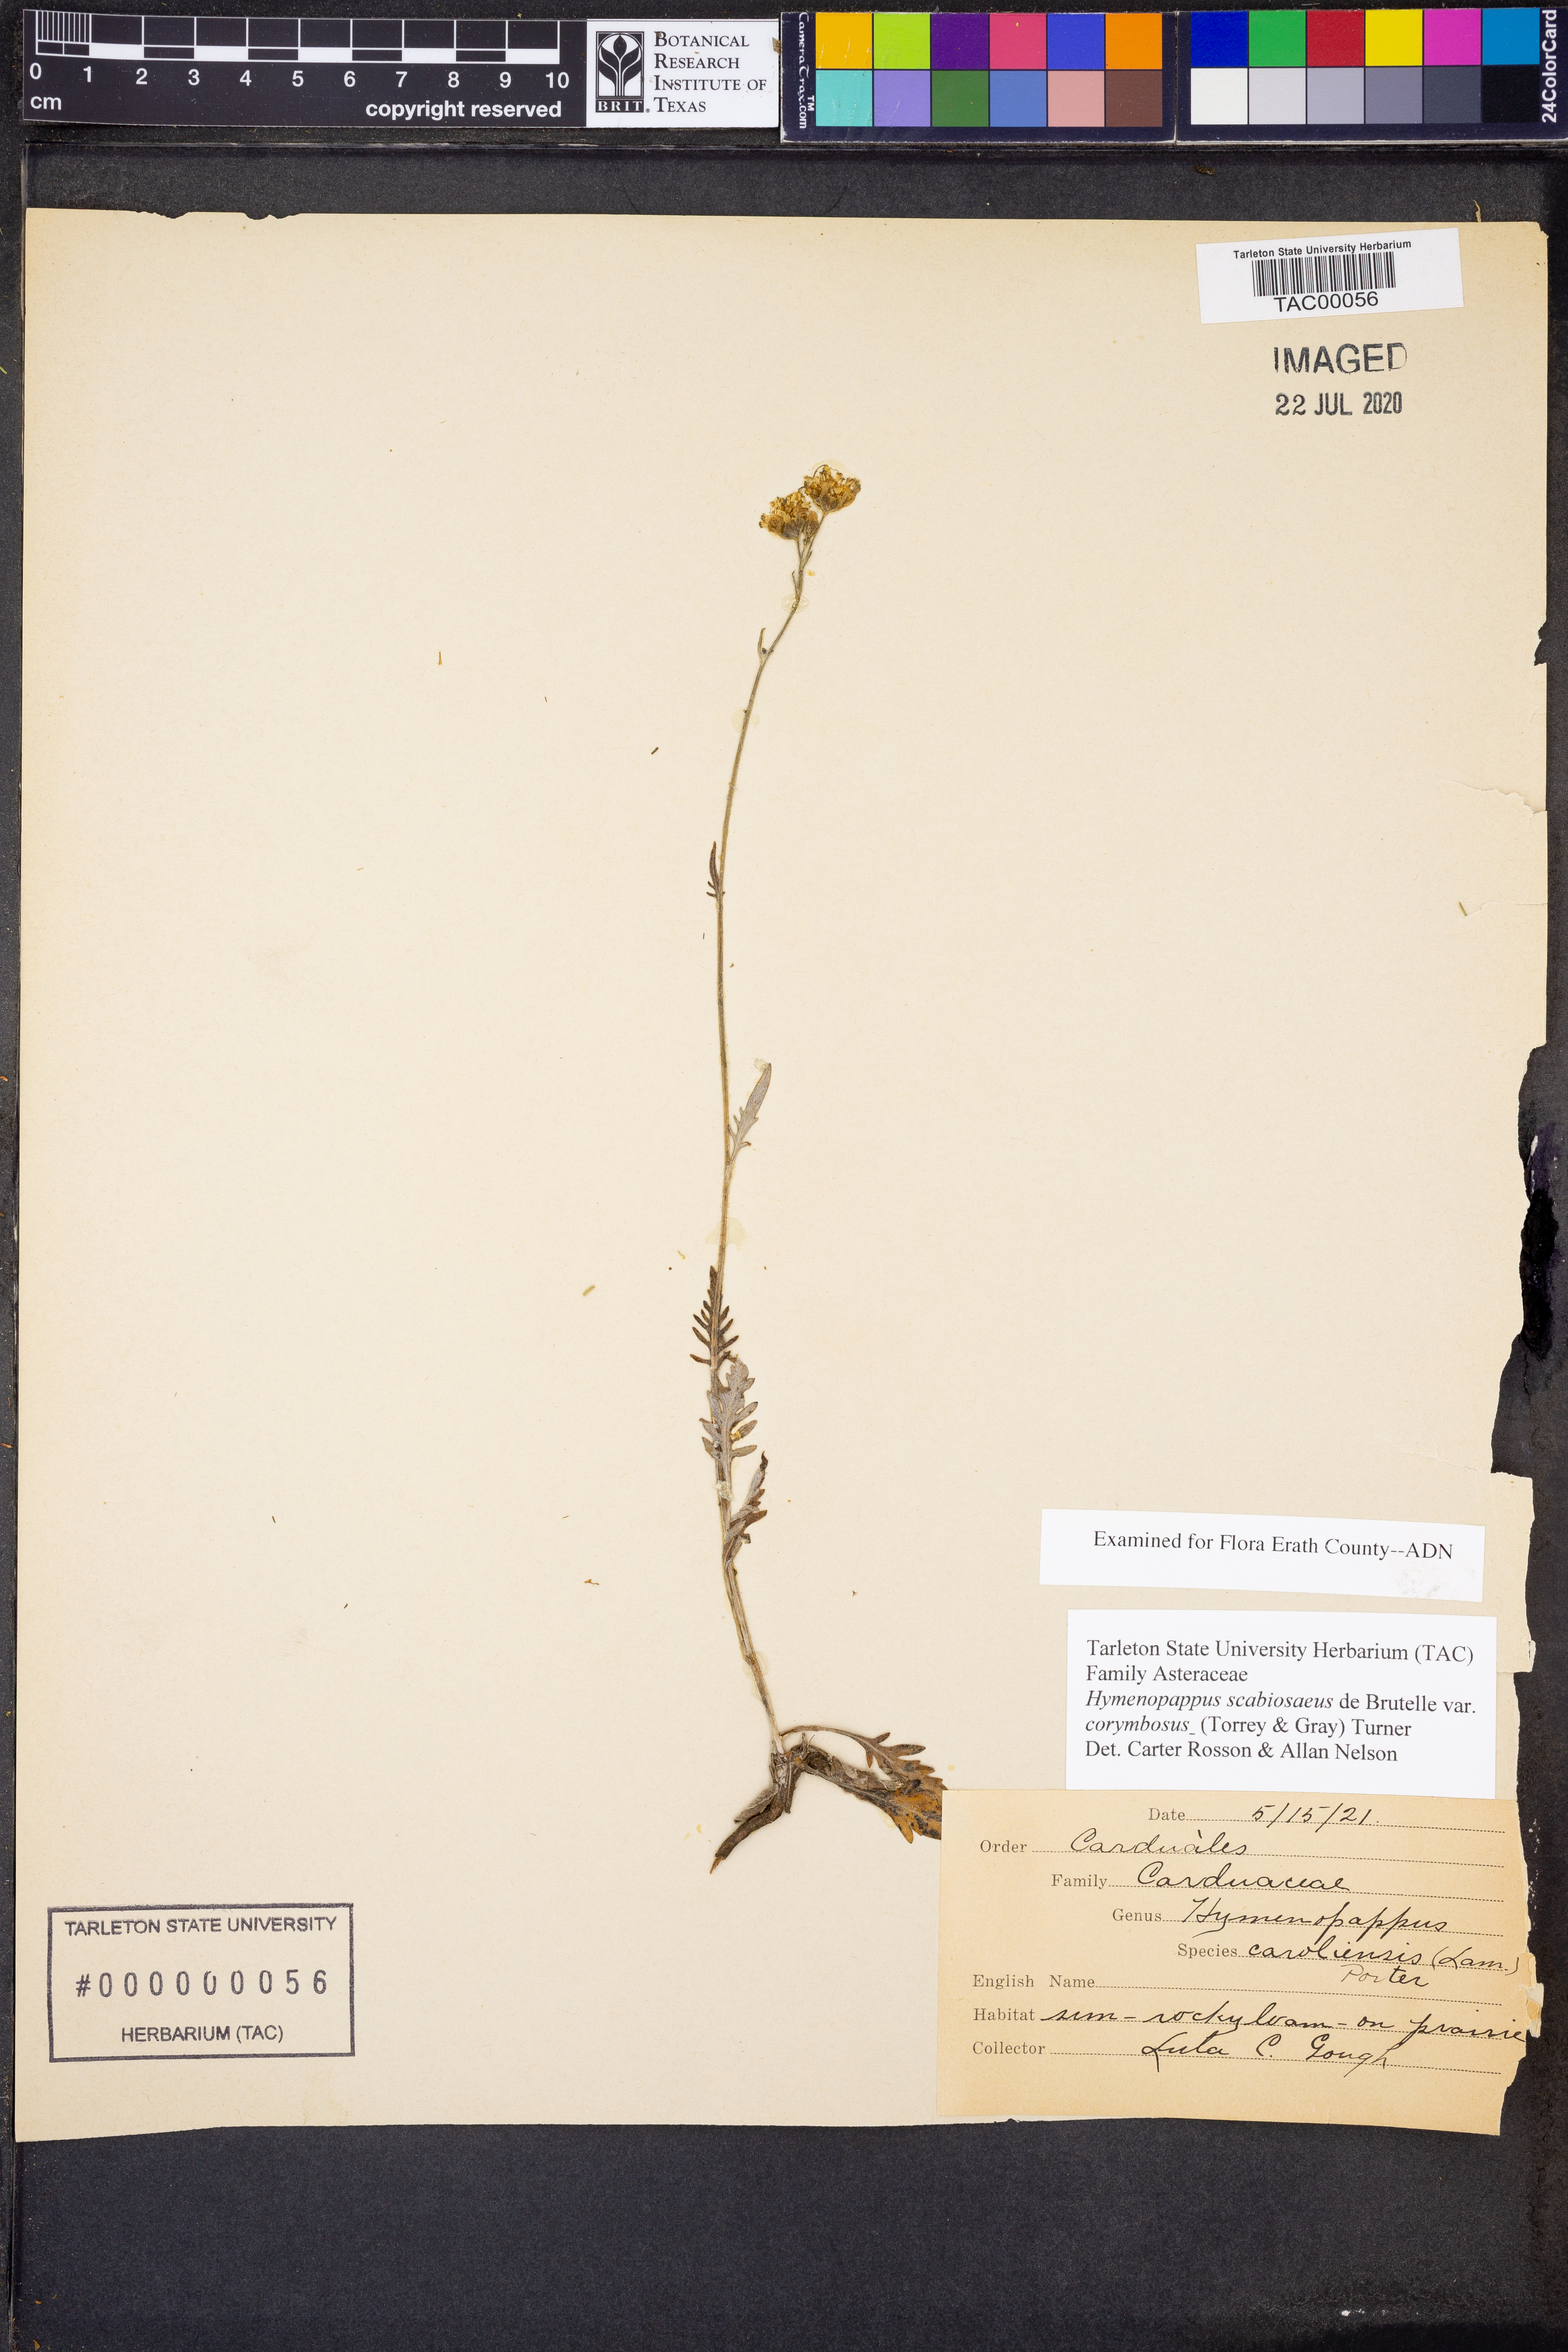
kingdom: Plantae
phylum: Tracheophyta
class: Magnoliopsida
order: Asterales
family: Asteraceae
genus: Hymenopappus
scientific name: Hymenopappus scabiosaeus
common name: Carolina woollywhite
